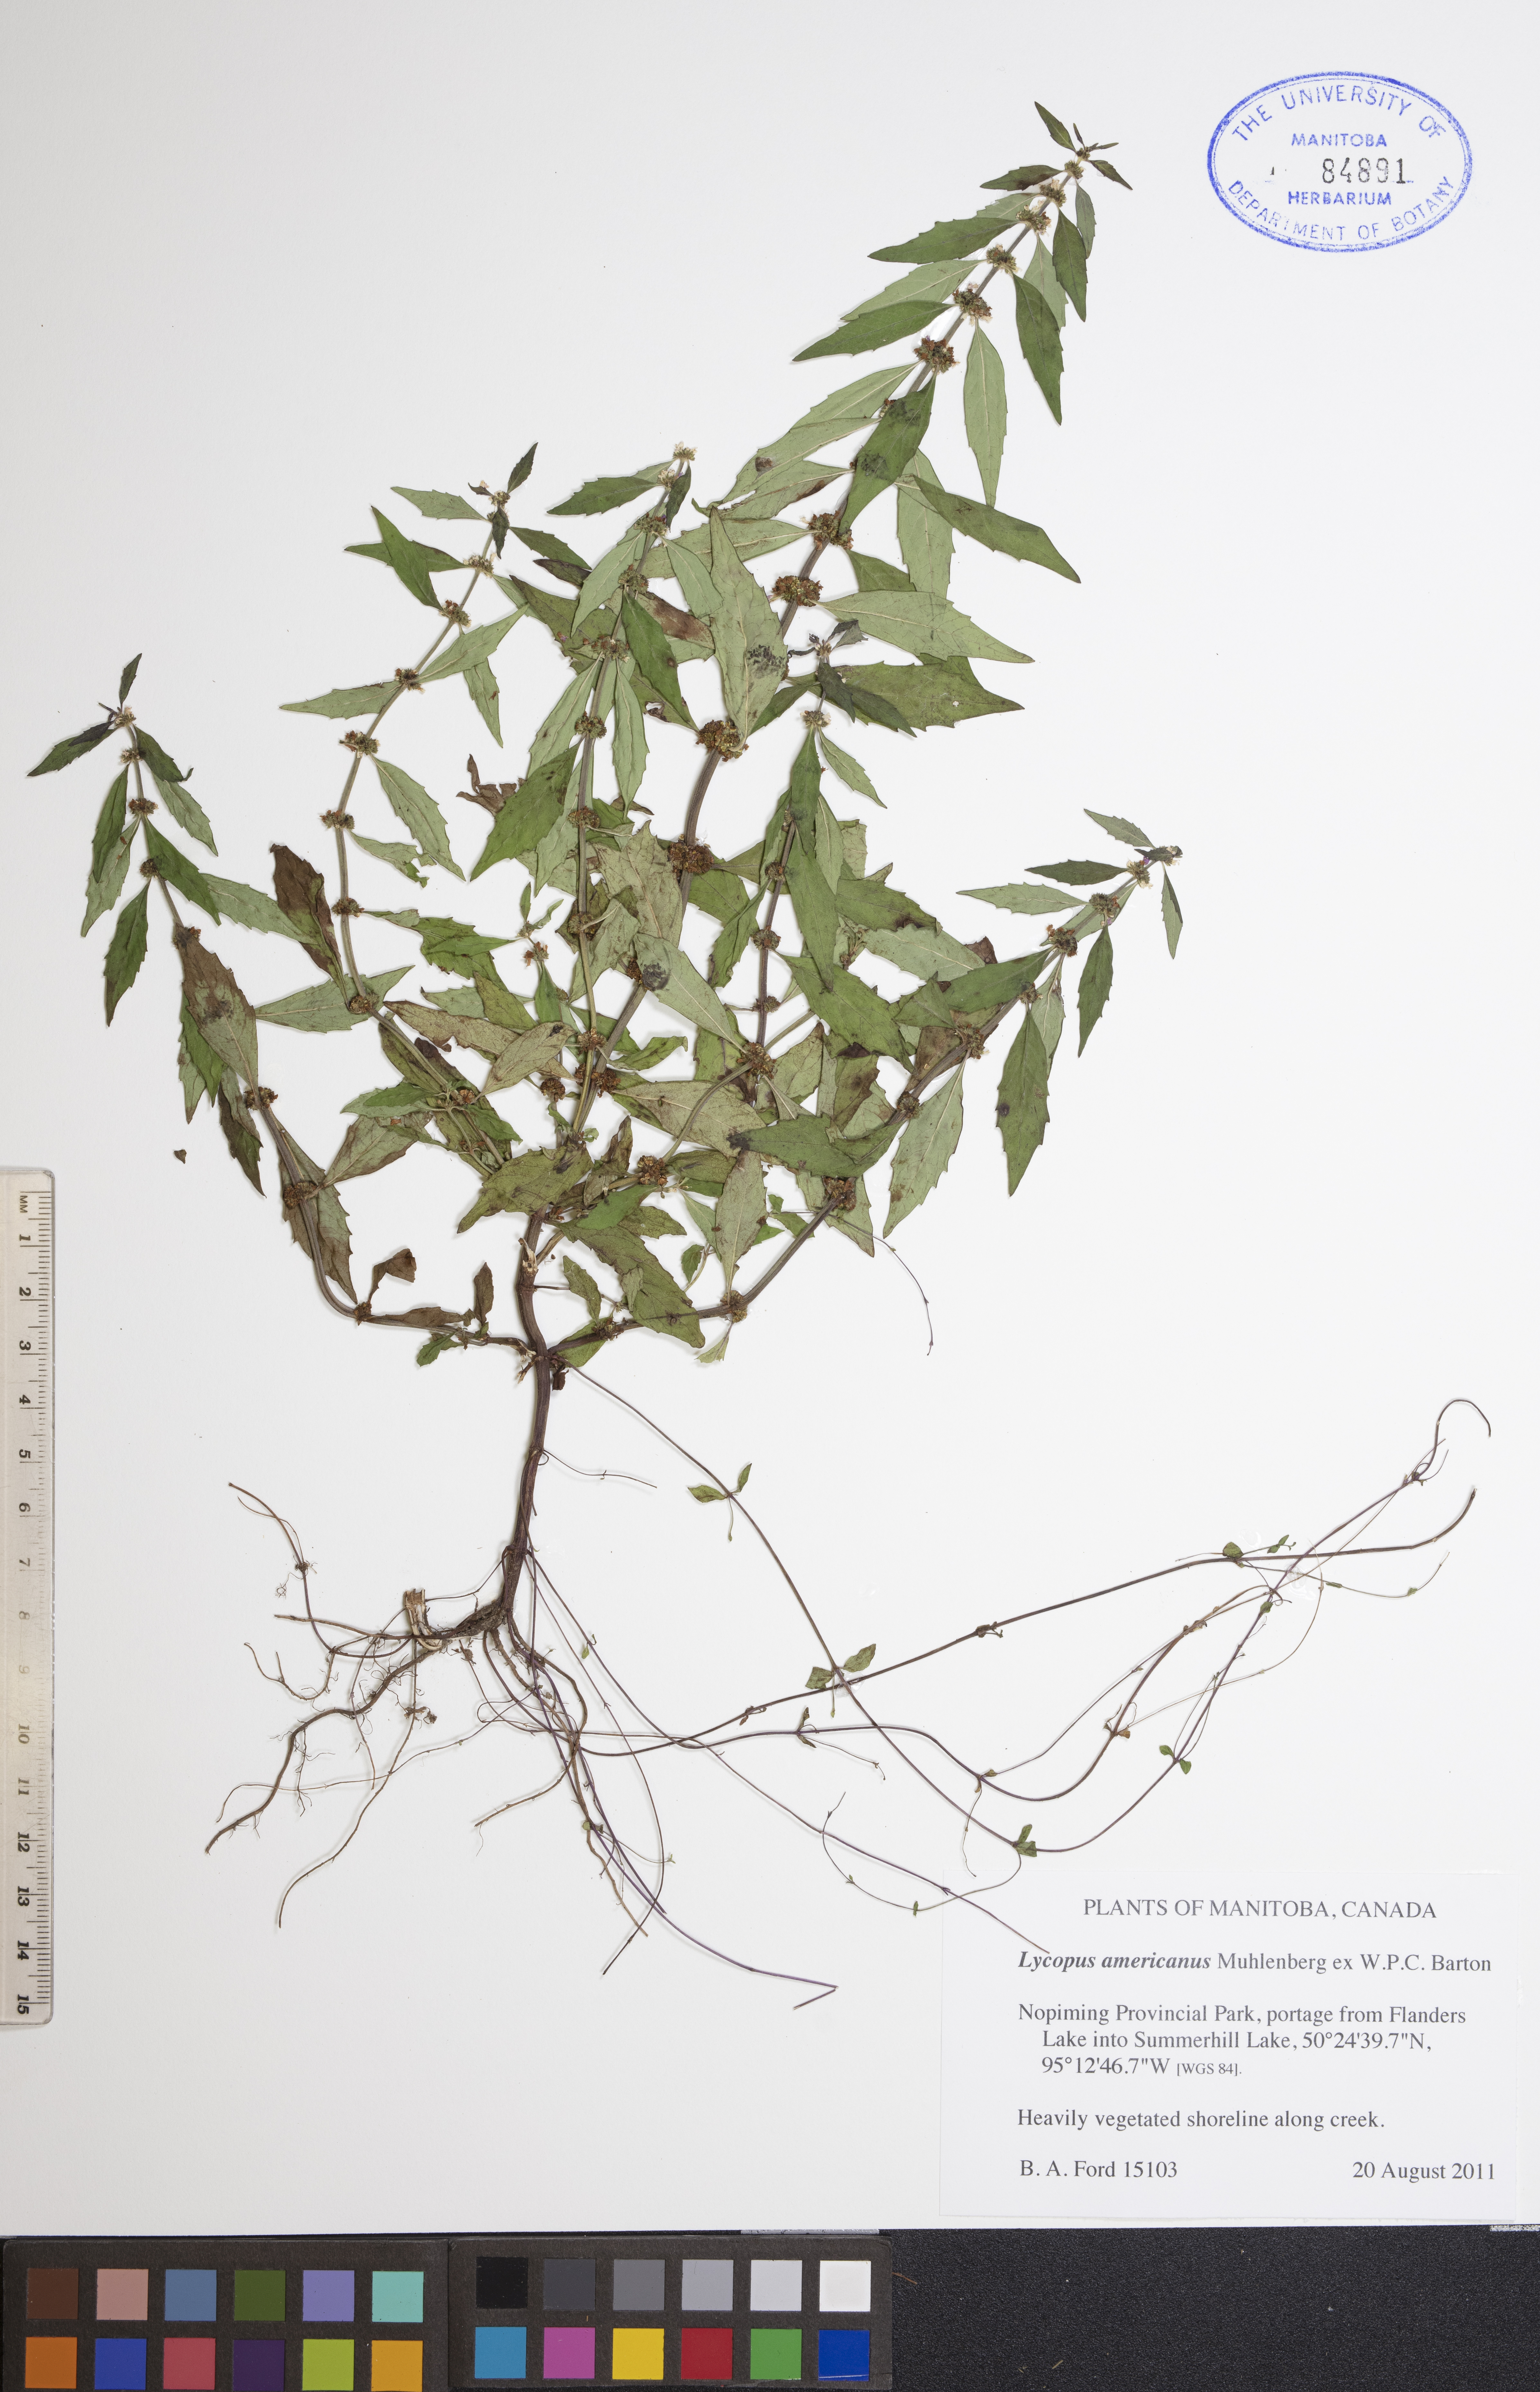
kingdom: Plantae
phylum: Tracheophyta
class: Magnoliopsida
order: Lamiales
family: Lamiaceae
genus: Lycopus
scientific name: Lycopus americanus
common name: American bugleweed
